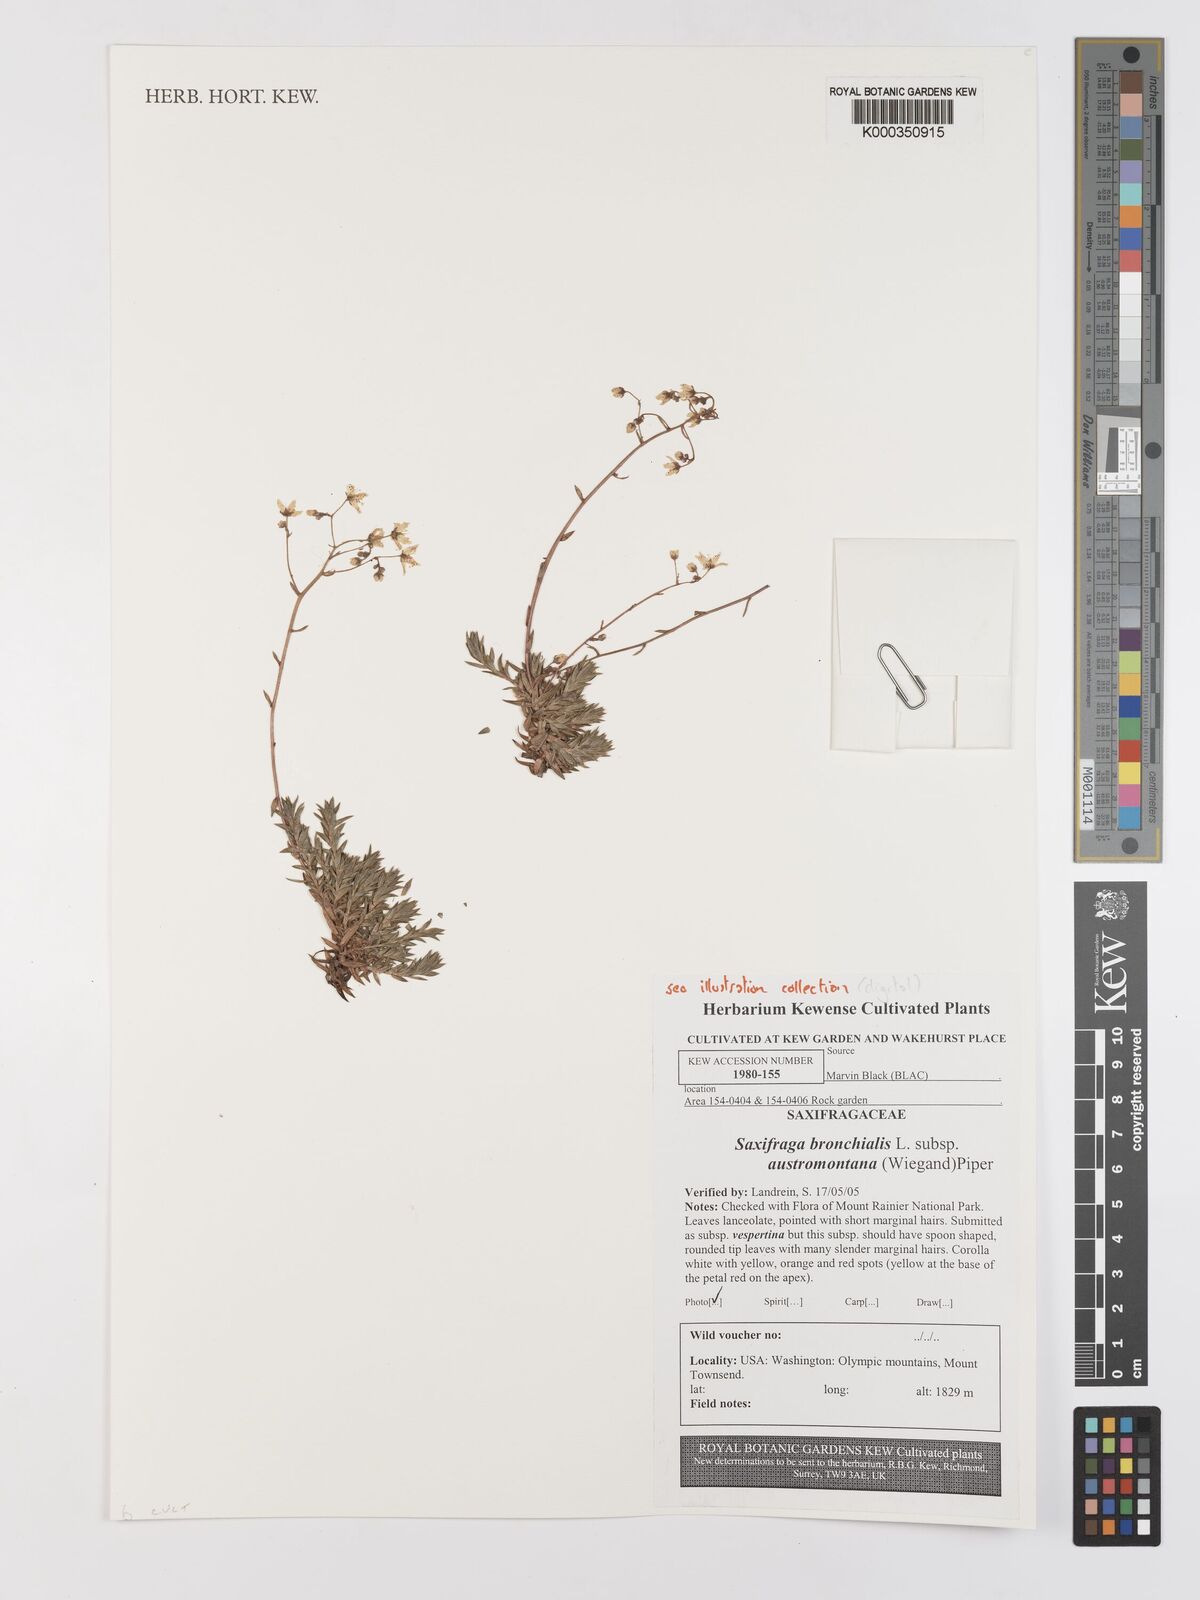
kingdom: Plantae
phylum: Tracheophyta
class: Magnoliopsida
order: Saxifragales
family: Saxifragaceae
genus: Saxifraga
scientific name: Saxifraga bronchialis
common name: Matted saxifrage
